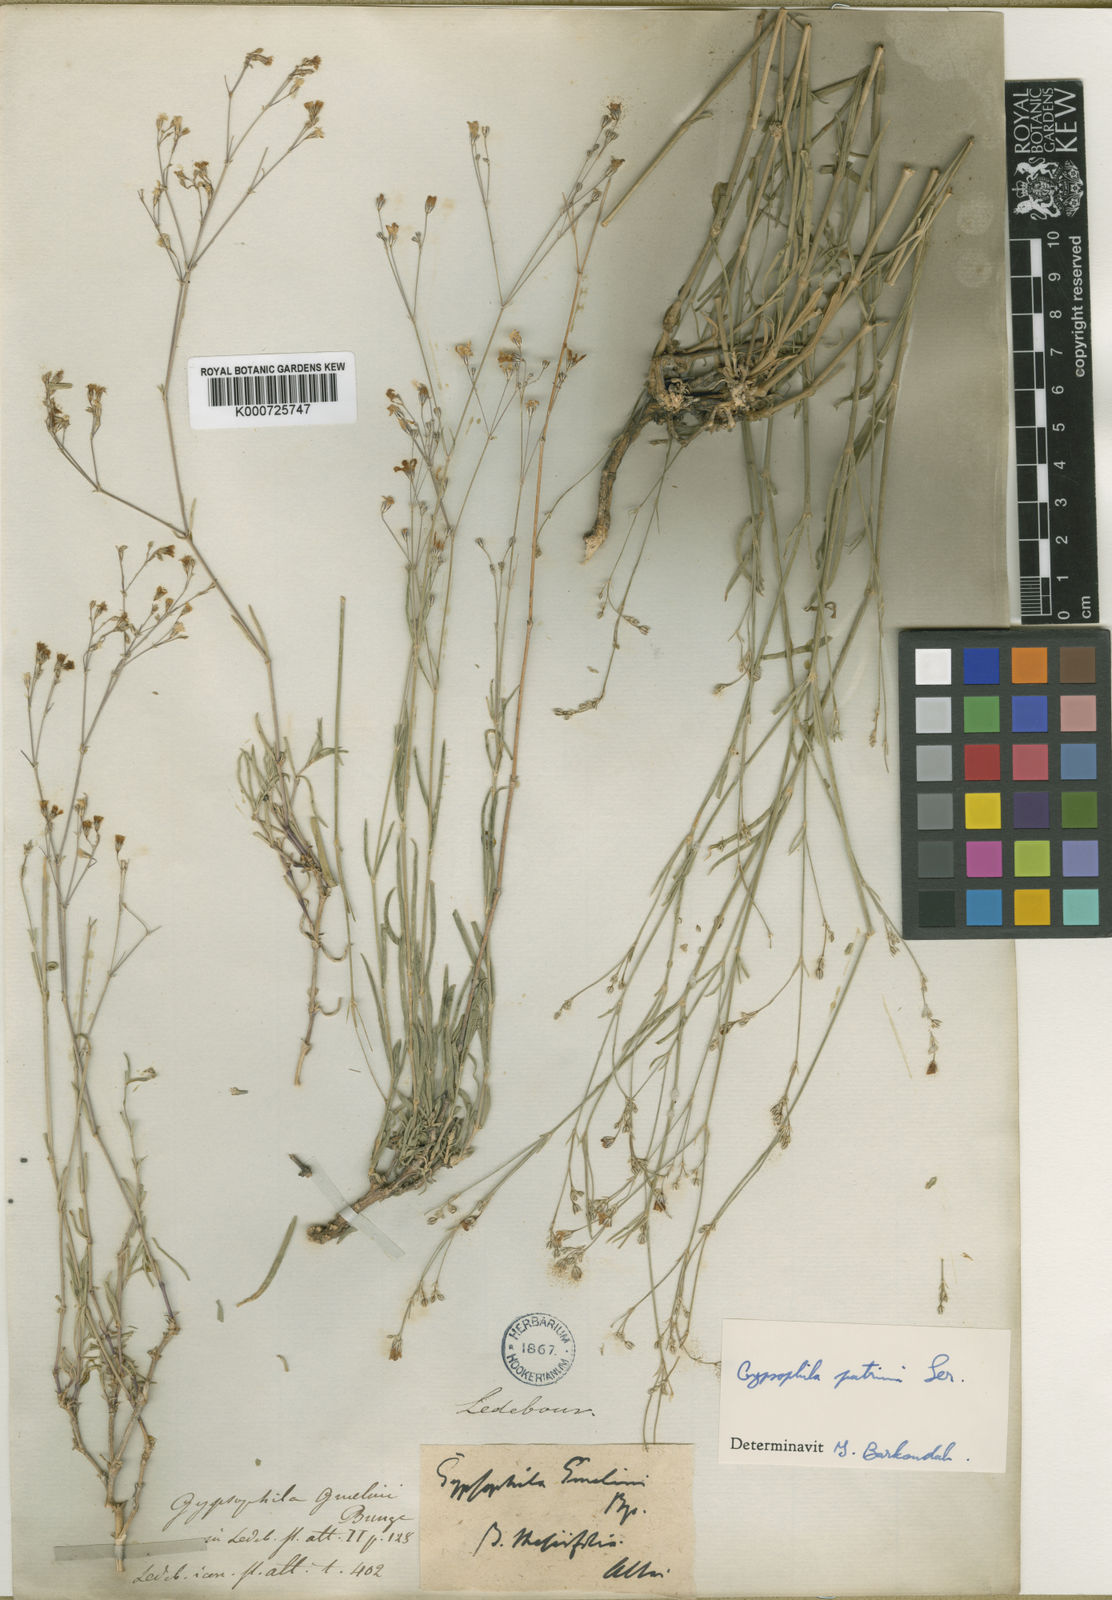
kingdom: Plantae
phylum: Tracheophyta
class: Magnoliopsida
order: Caryophyllales
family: Caryophyllaceae
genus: Gypsophila
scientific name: Gypsophila patrinii
